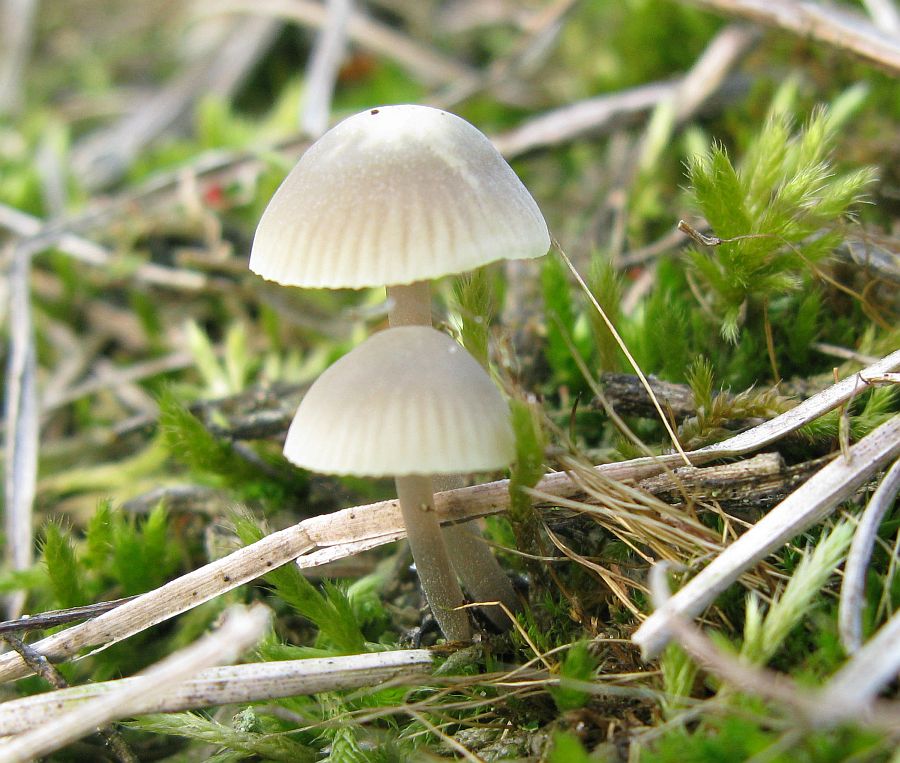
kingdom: Fungi
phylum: Basidiomycota
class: Agaricomycetes
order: Agaricales
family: Mycenaceae
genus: Mycena
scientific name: Mycena chlorantha
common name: klit-huesvamp
